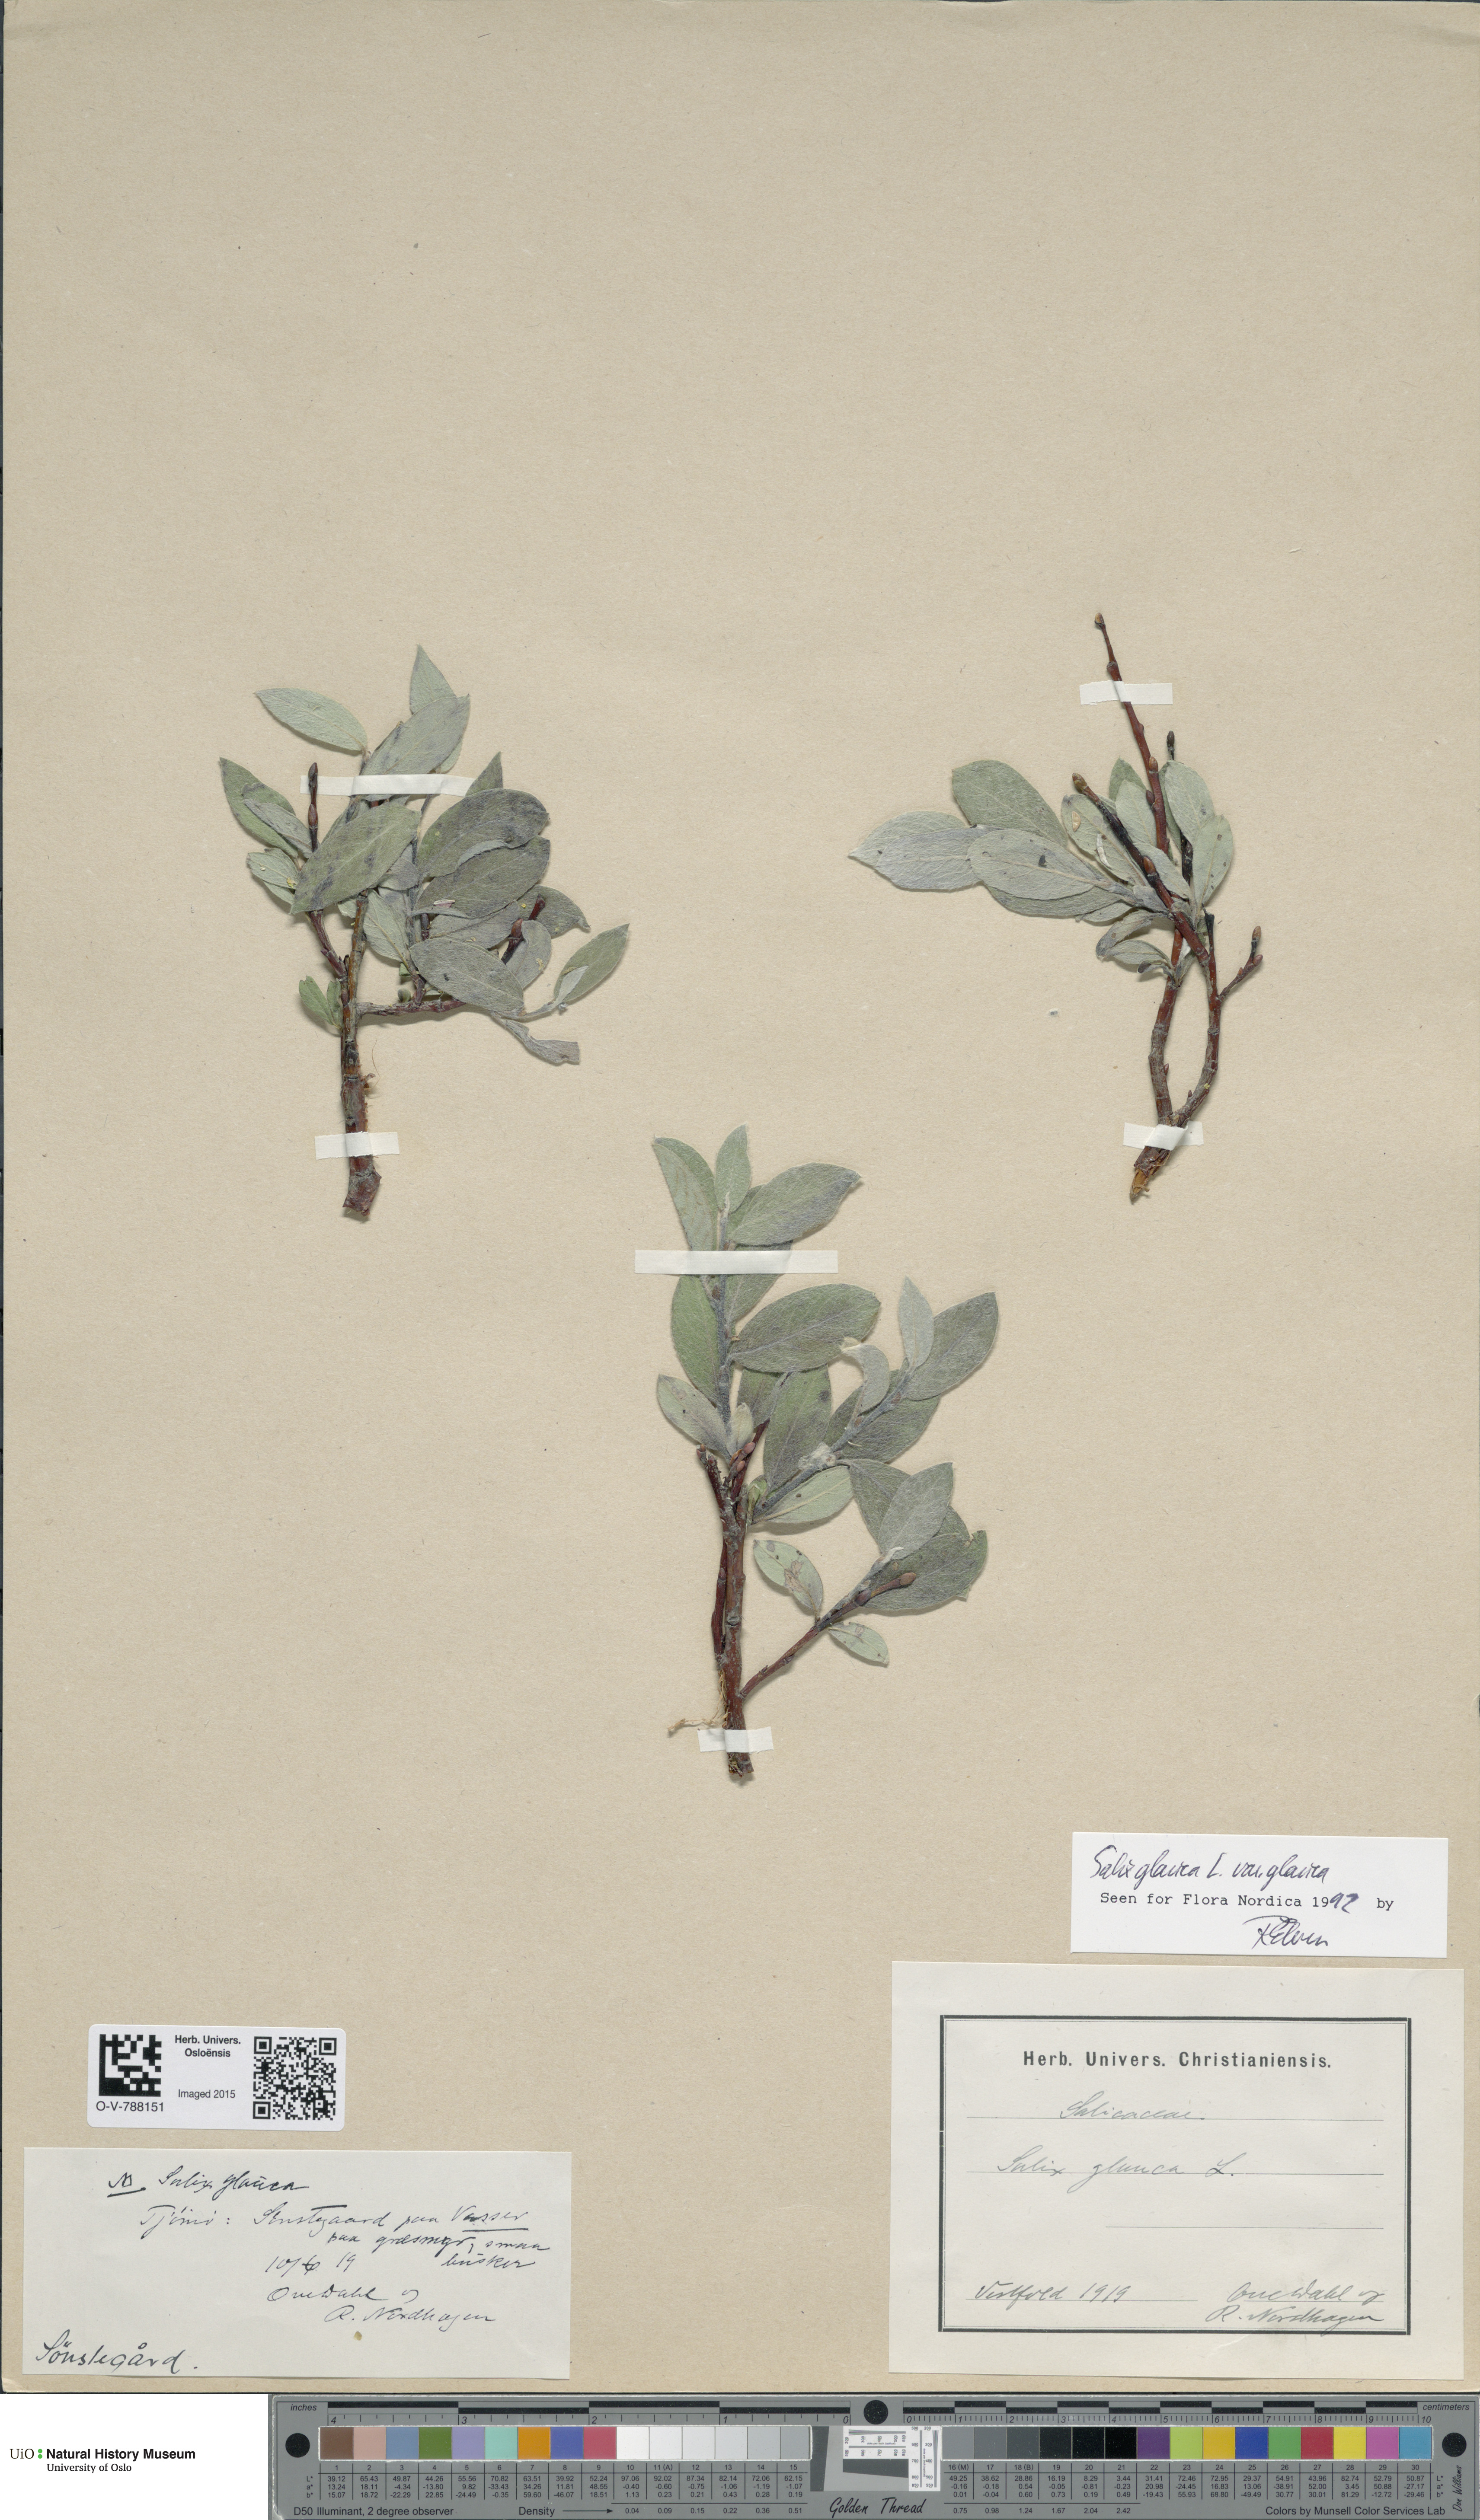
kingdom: Plantae
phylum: Tracheophyta
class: Magnoliopsida
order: Malpighiales
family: Salicaceae
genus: Salix
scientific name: Salix glauca
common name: Glaucous willow
